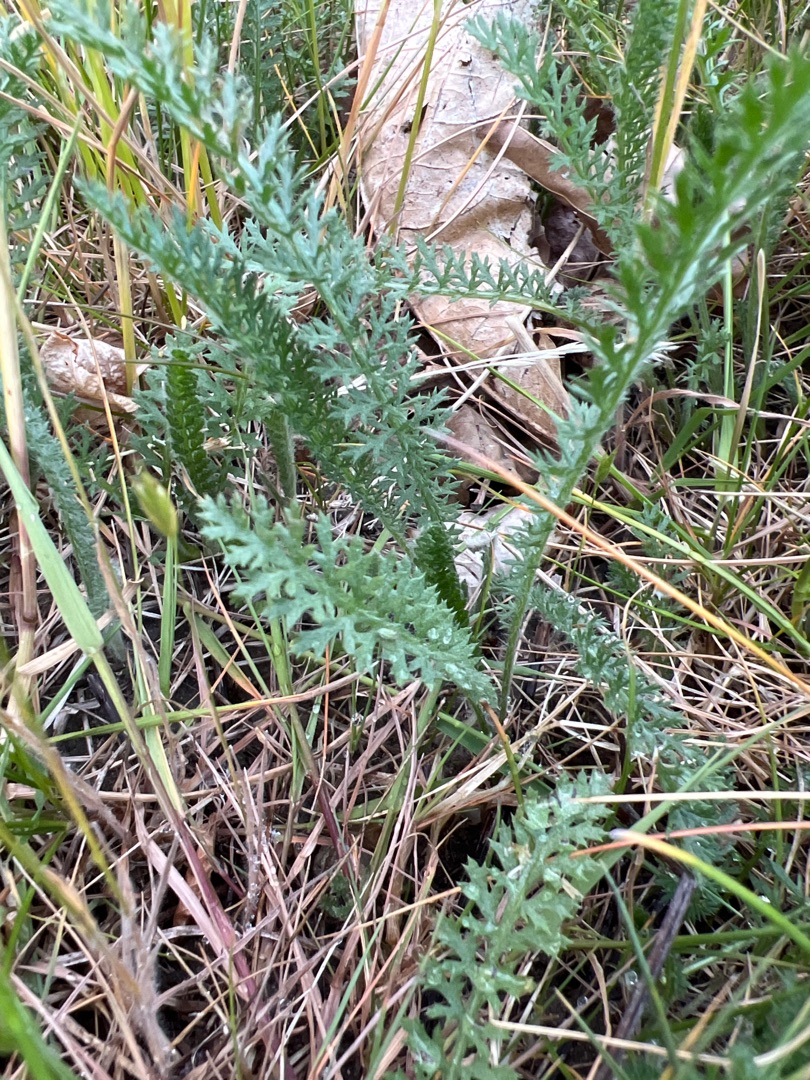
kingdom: Plantae
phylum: Tracheophyta
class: Magnoliopsida
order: Asterales
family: Asteraceae
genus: Achillea
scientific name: Achillea millefolium
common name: Almindelig røllike
